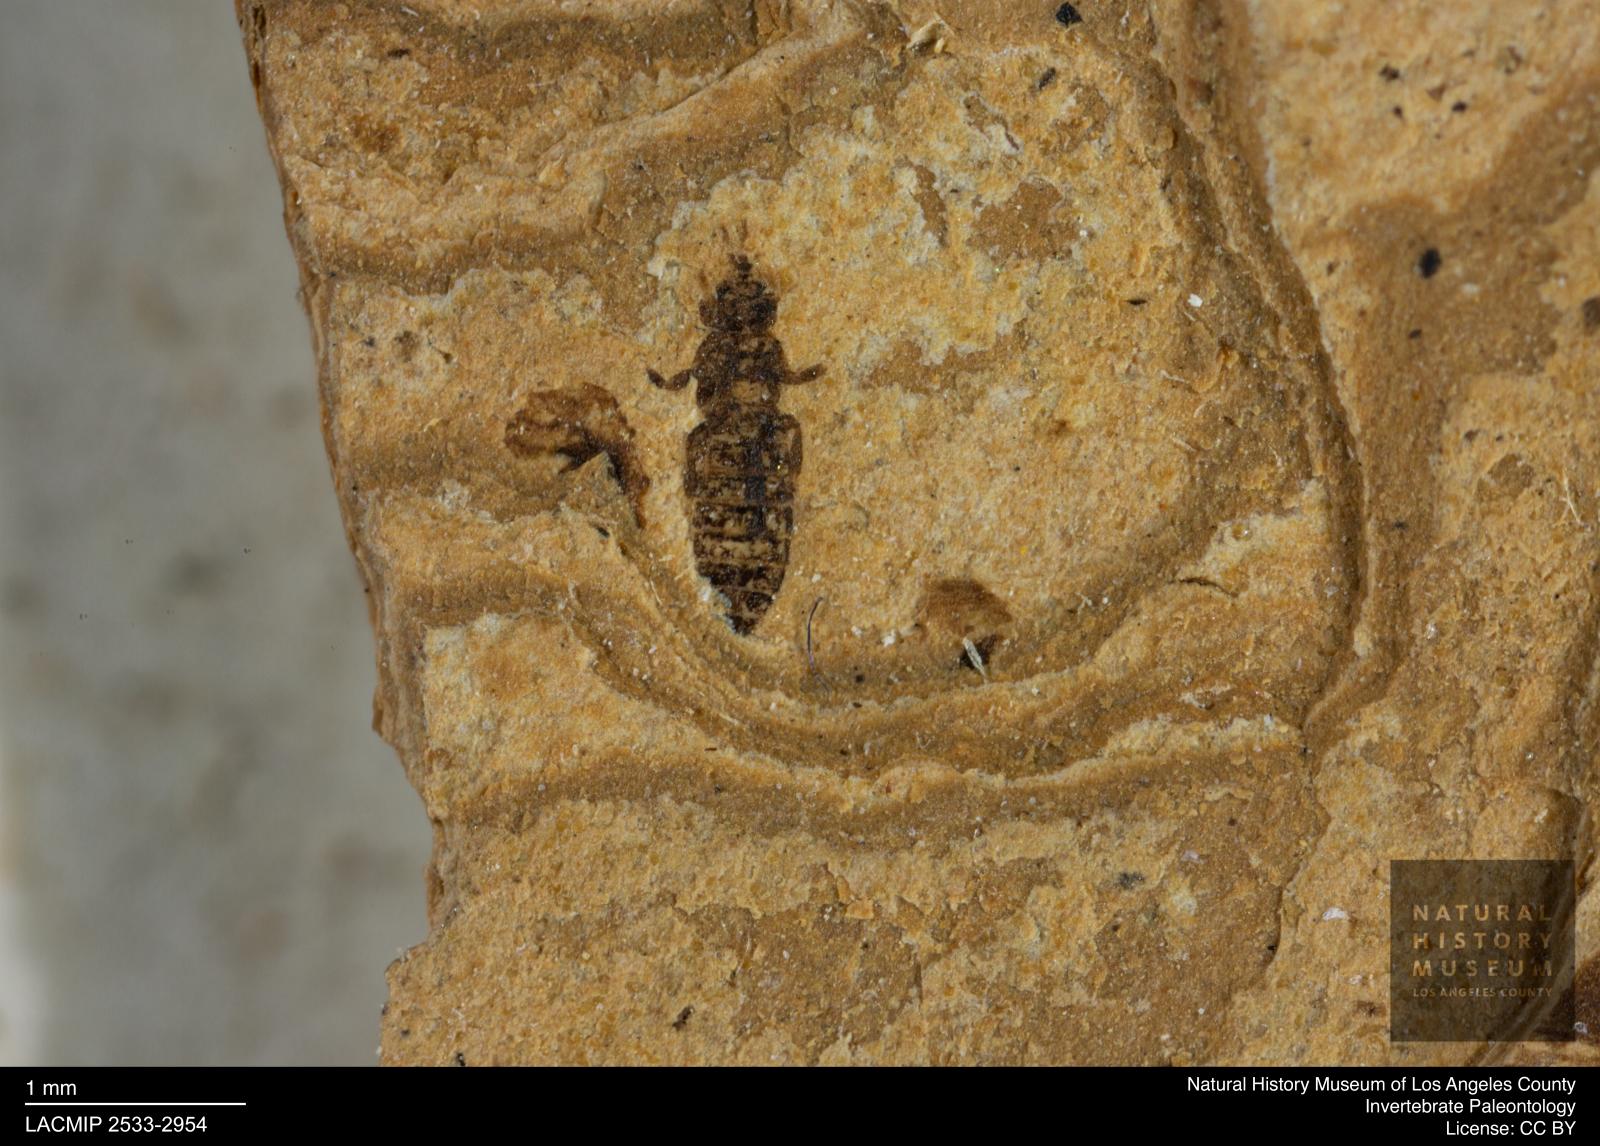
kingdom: Animalia
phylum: Arthropoda
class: Insecta
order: Thysanoptera
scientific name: Thysanoptera
